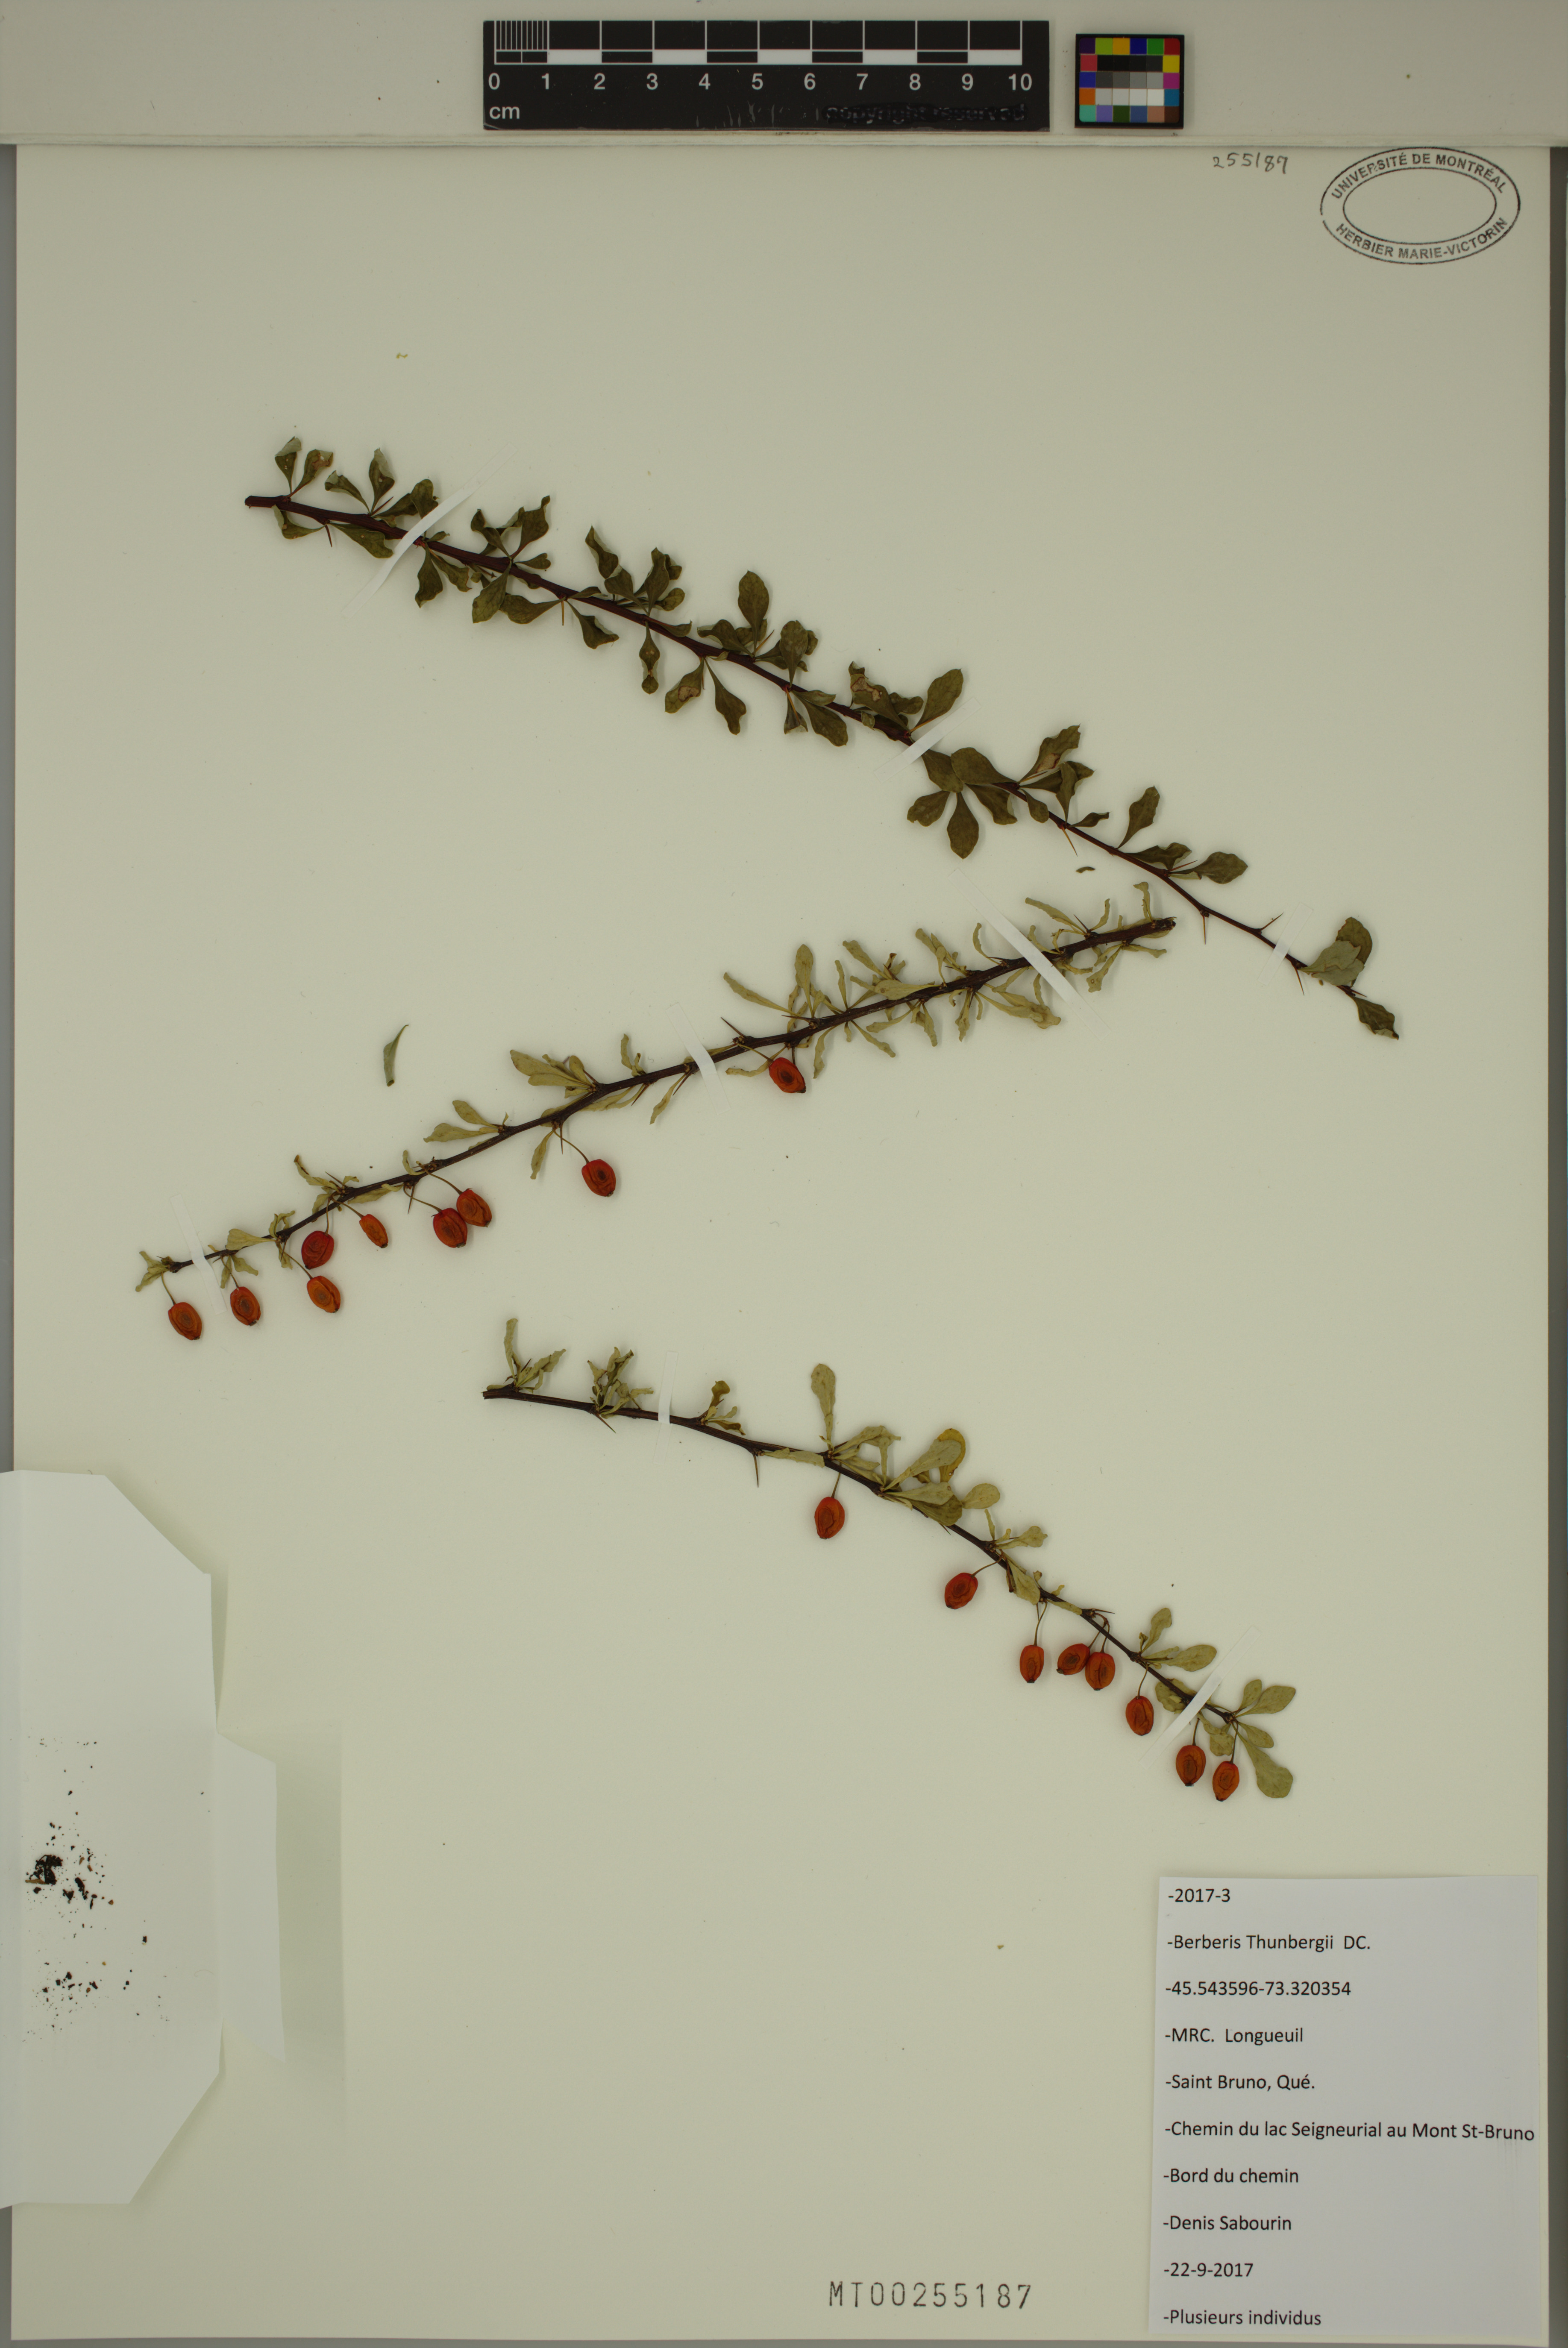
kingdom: Plantae
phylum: Tracheophyta
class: Magnoliopsida
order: Ranunculales
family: Berberidaceae
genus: Berberis
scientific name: Berberis thunbergii
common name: Japanese barberry
